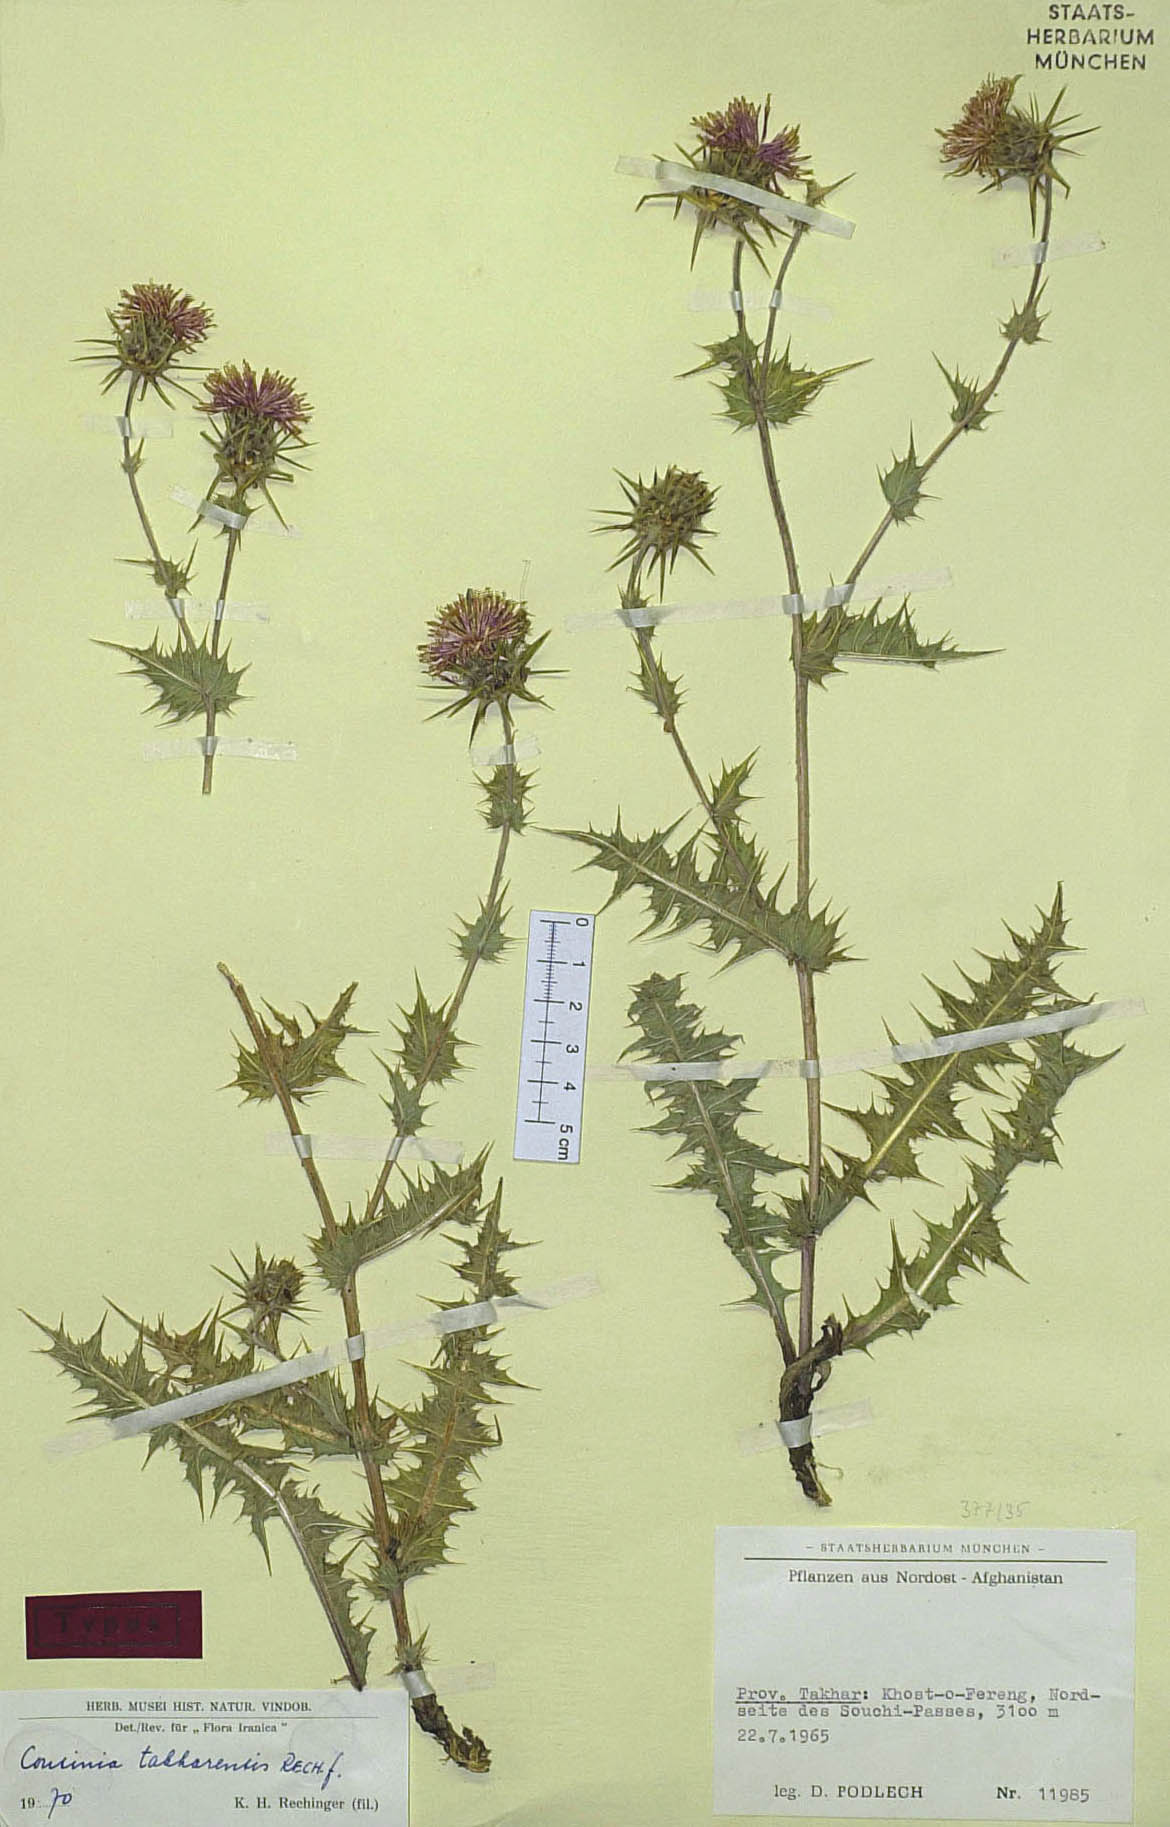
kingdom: Plantae
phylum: Tracheophyta
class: Magnoliopsida
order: Asterales
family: Asteraceae
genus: Cousinia
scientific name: Cousinia takharensis
